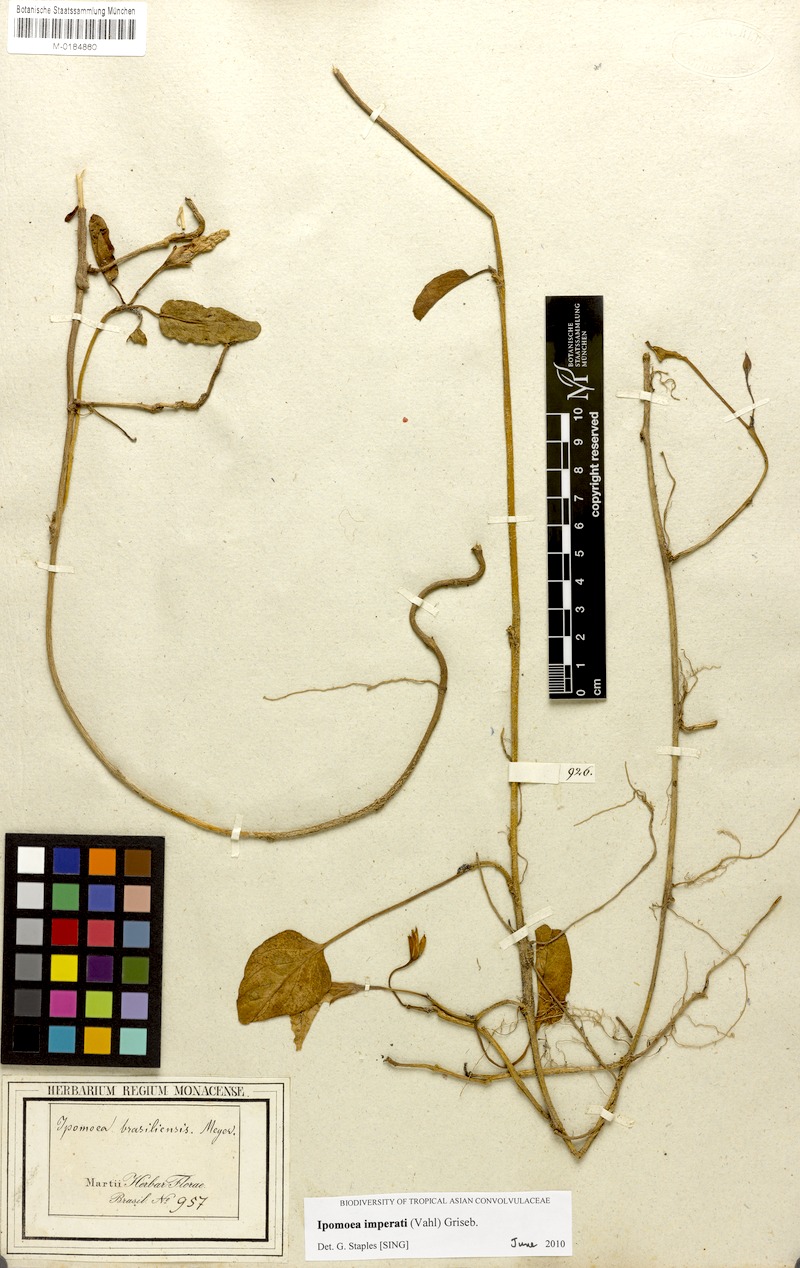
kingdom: Plantae
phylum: Tracheophyta
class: Magnoliopsida
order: Solanales
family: Convolvulaceae
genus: Ipomoea
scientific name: Ipomoea imperati
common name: Fiddle-leaf morning-glory
